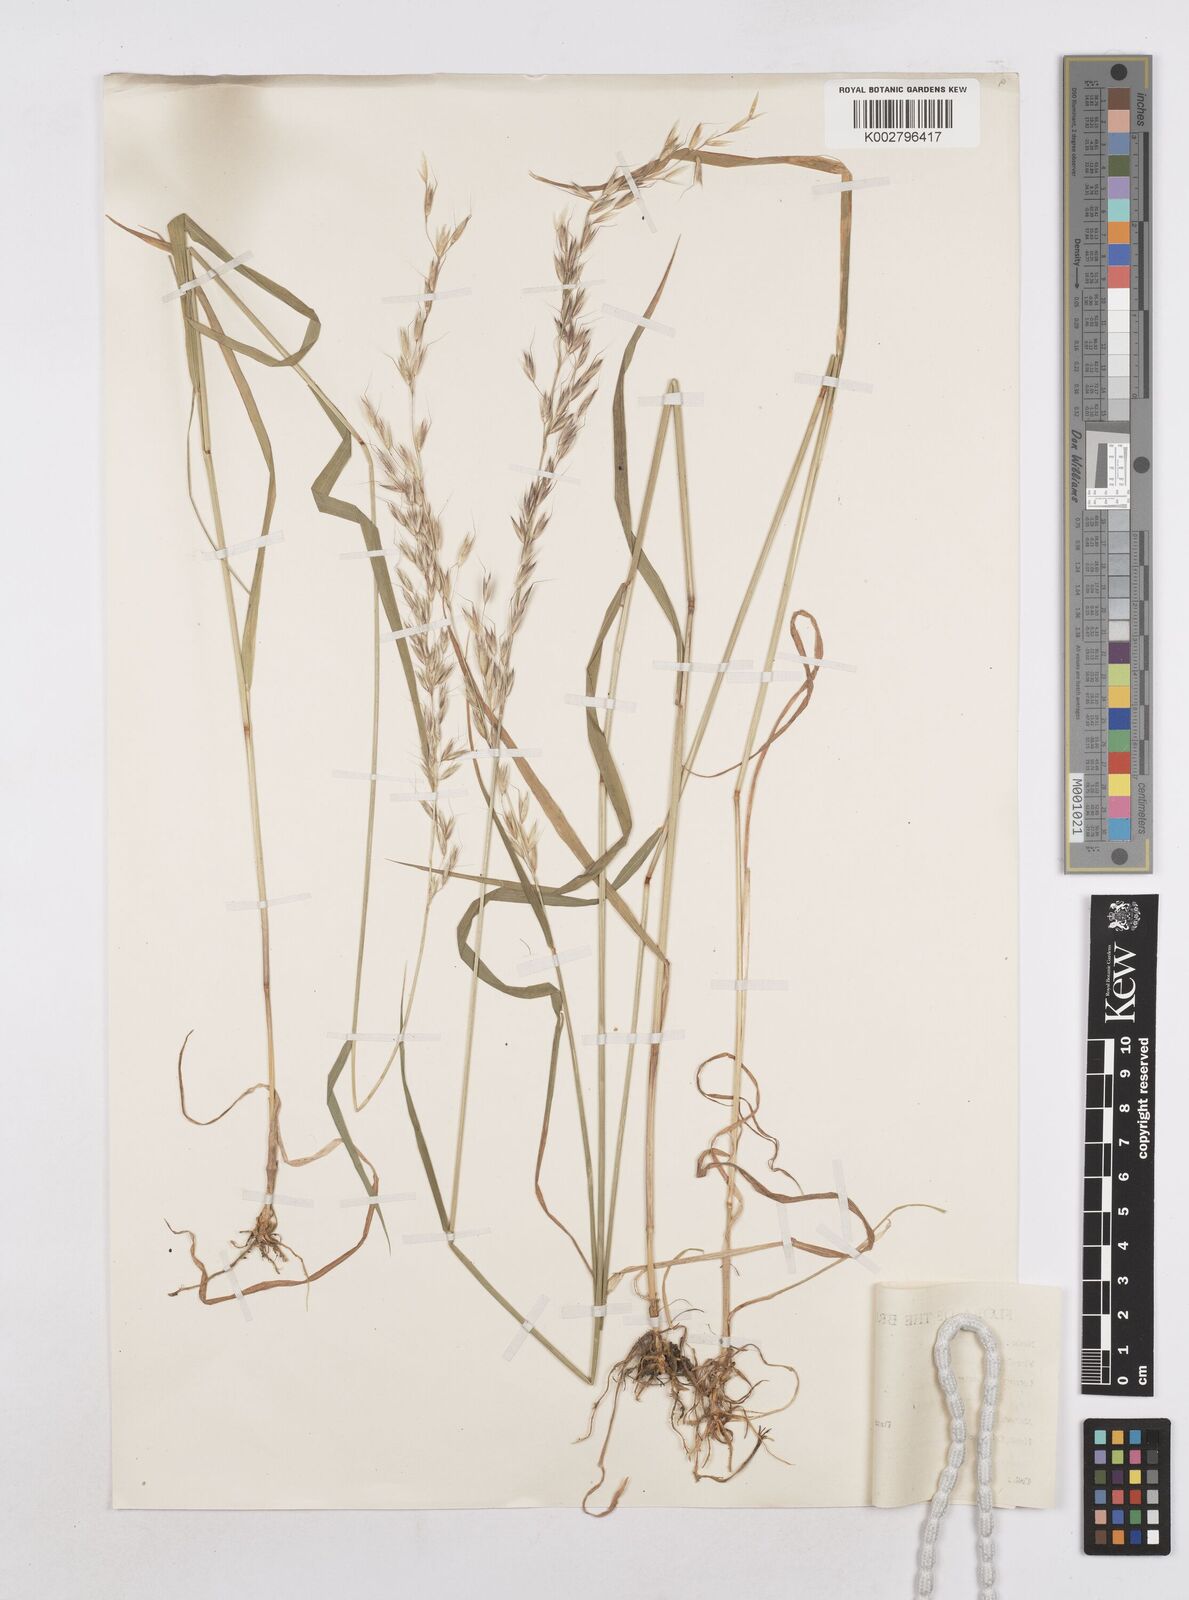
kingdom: Plantae
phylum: Tracheophyta
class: Liliopsida
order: Poales
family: Poaceae
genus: Arrhenatherum
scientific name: Arrhenatherum elatius
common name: Tall oatgrass
